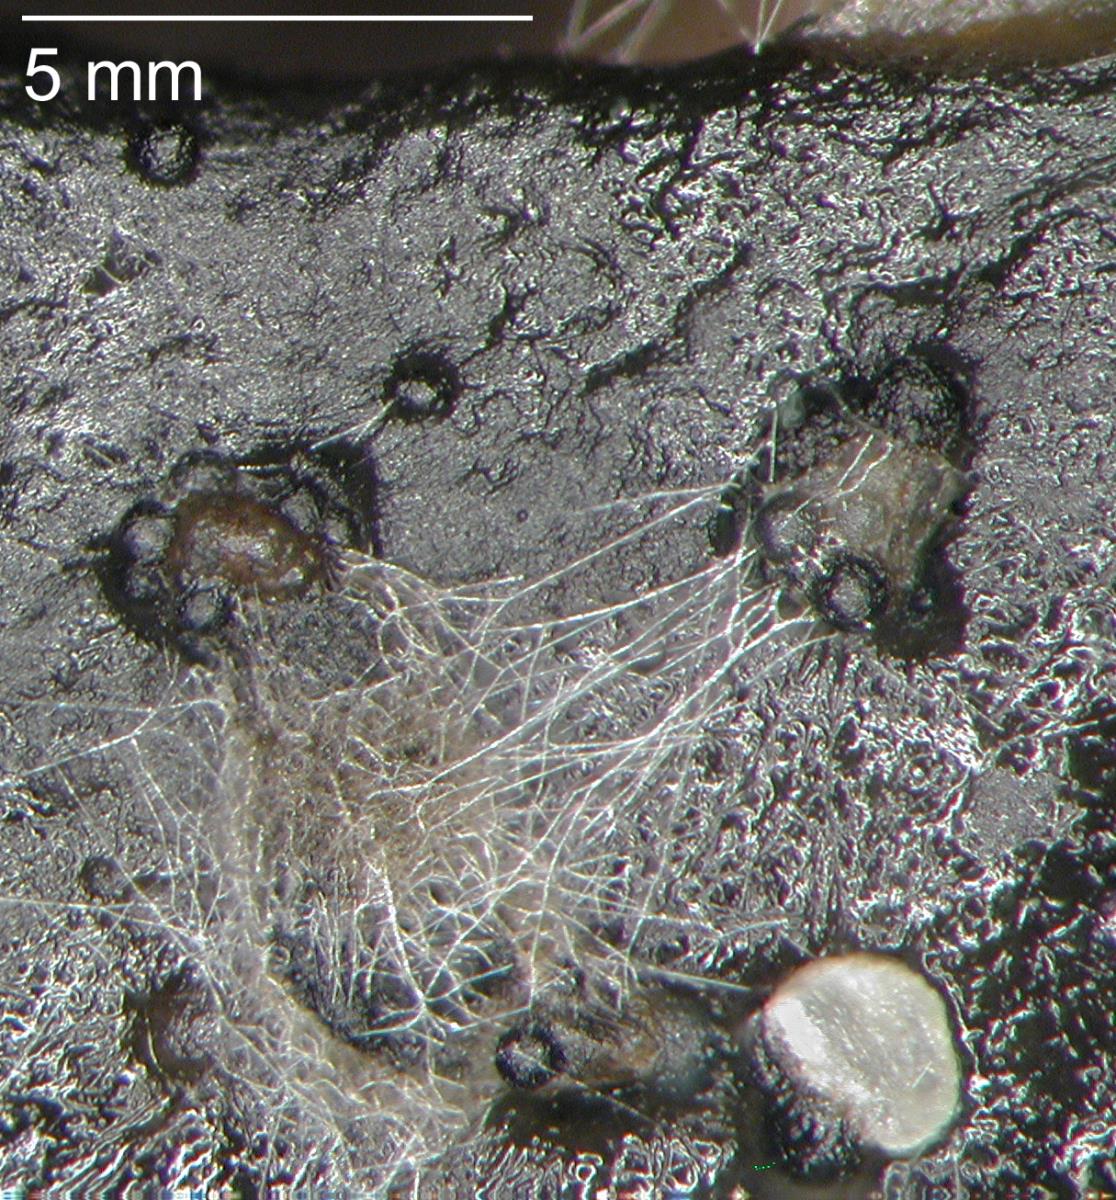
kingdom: Fungi
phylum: Ascomycota
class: Sordariomycetes
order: Microascales
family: Halosphaeriaceae
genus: Corollospora
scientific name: Corollospora angusta
